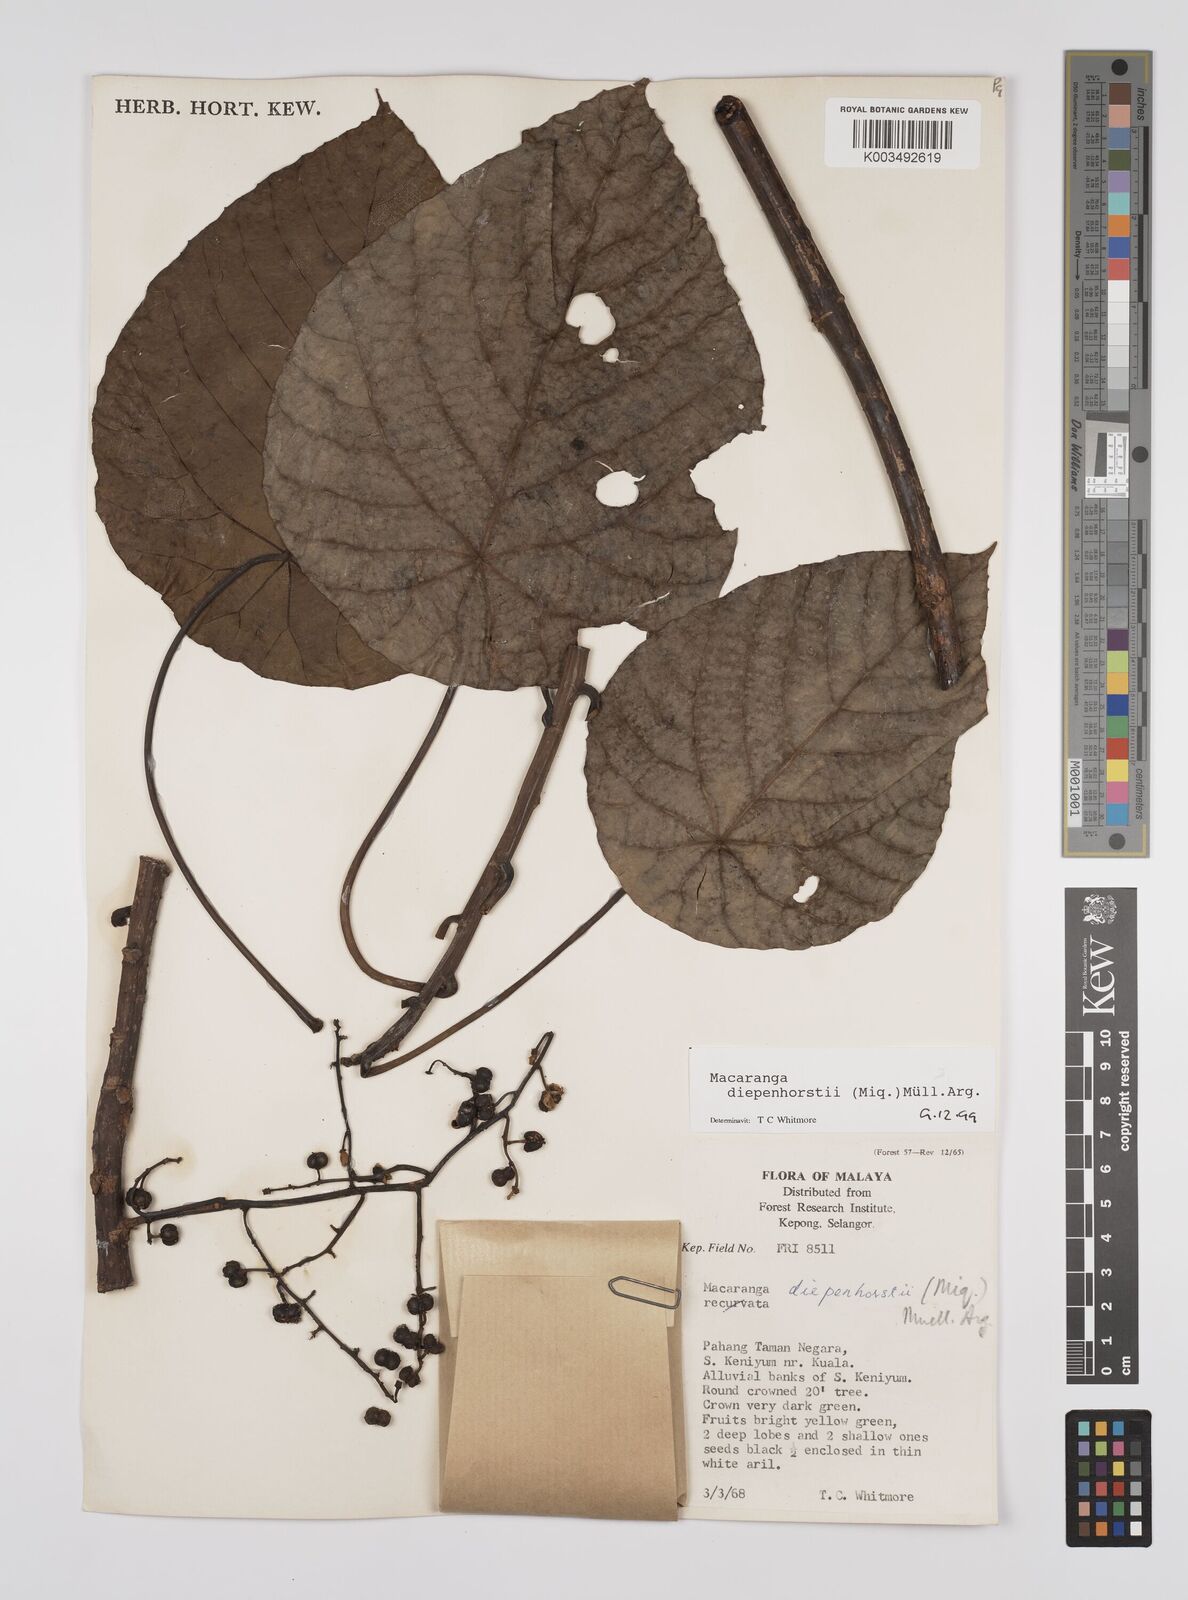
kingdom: Plantae
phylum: Tracheophyta
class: Magnoliopsida
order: Malpighiales
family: Euphorbiaceae
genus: Macaranga
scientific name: Macaranga diepenhorstii
